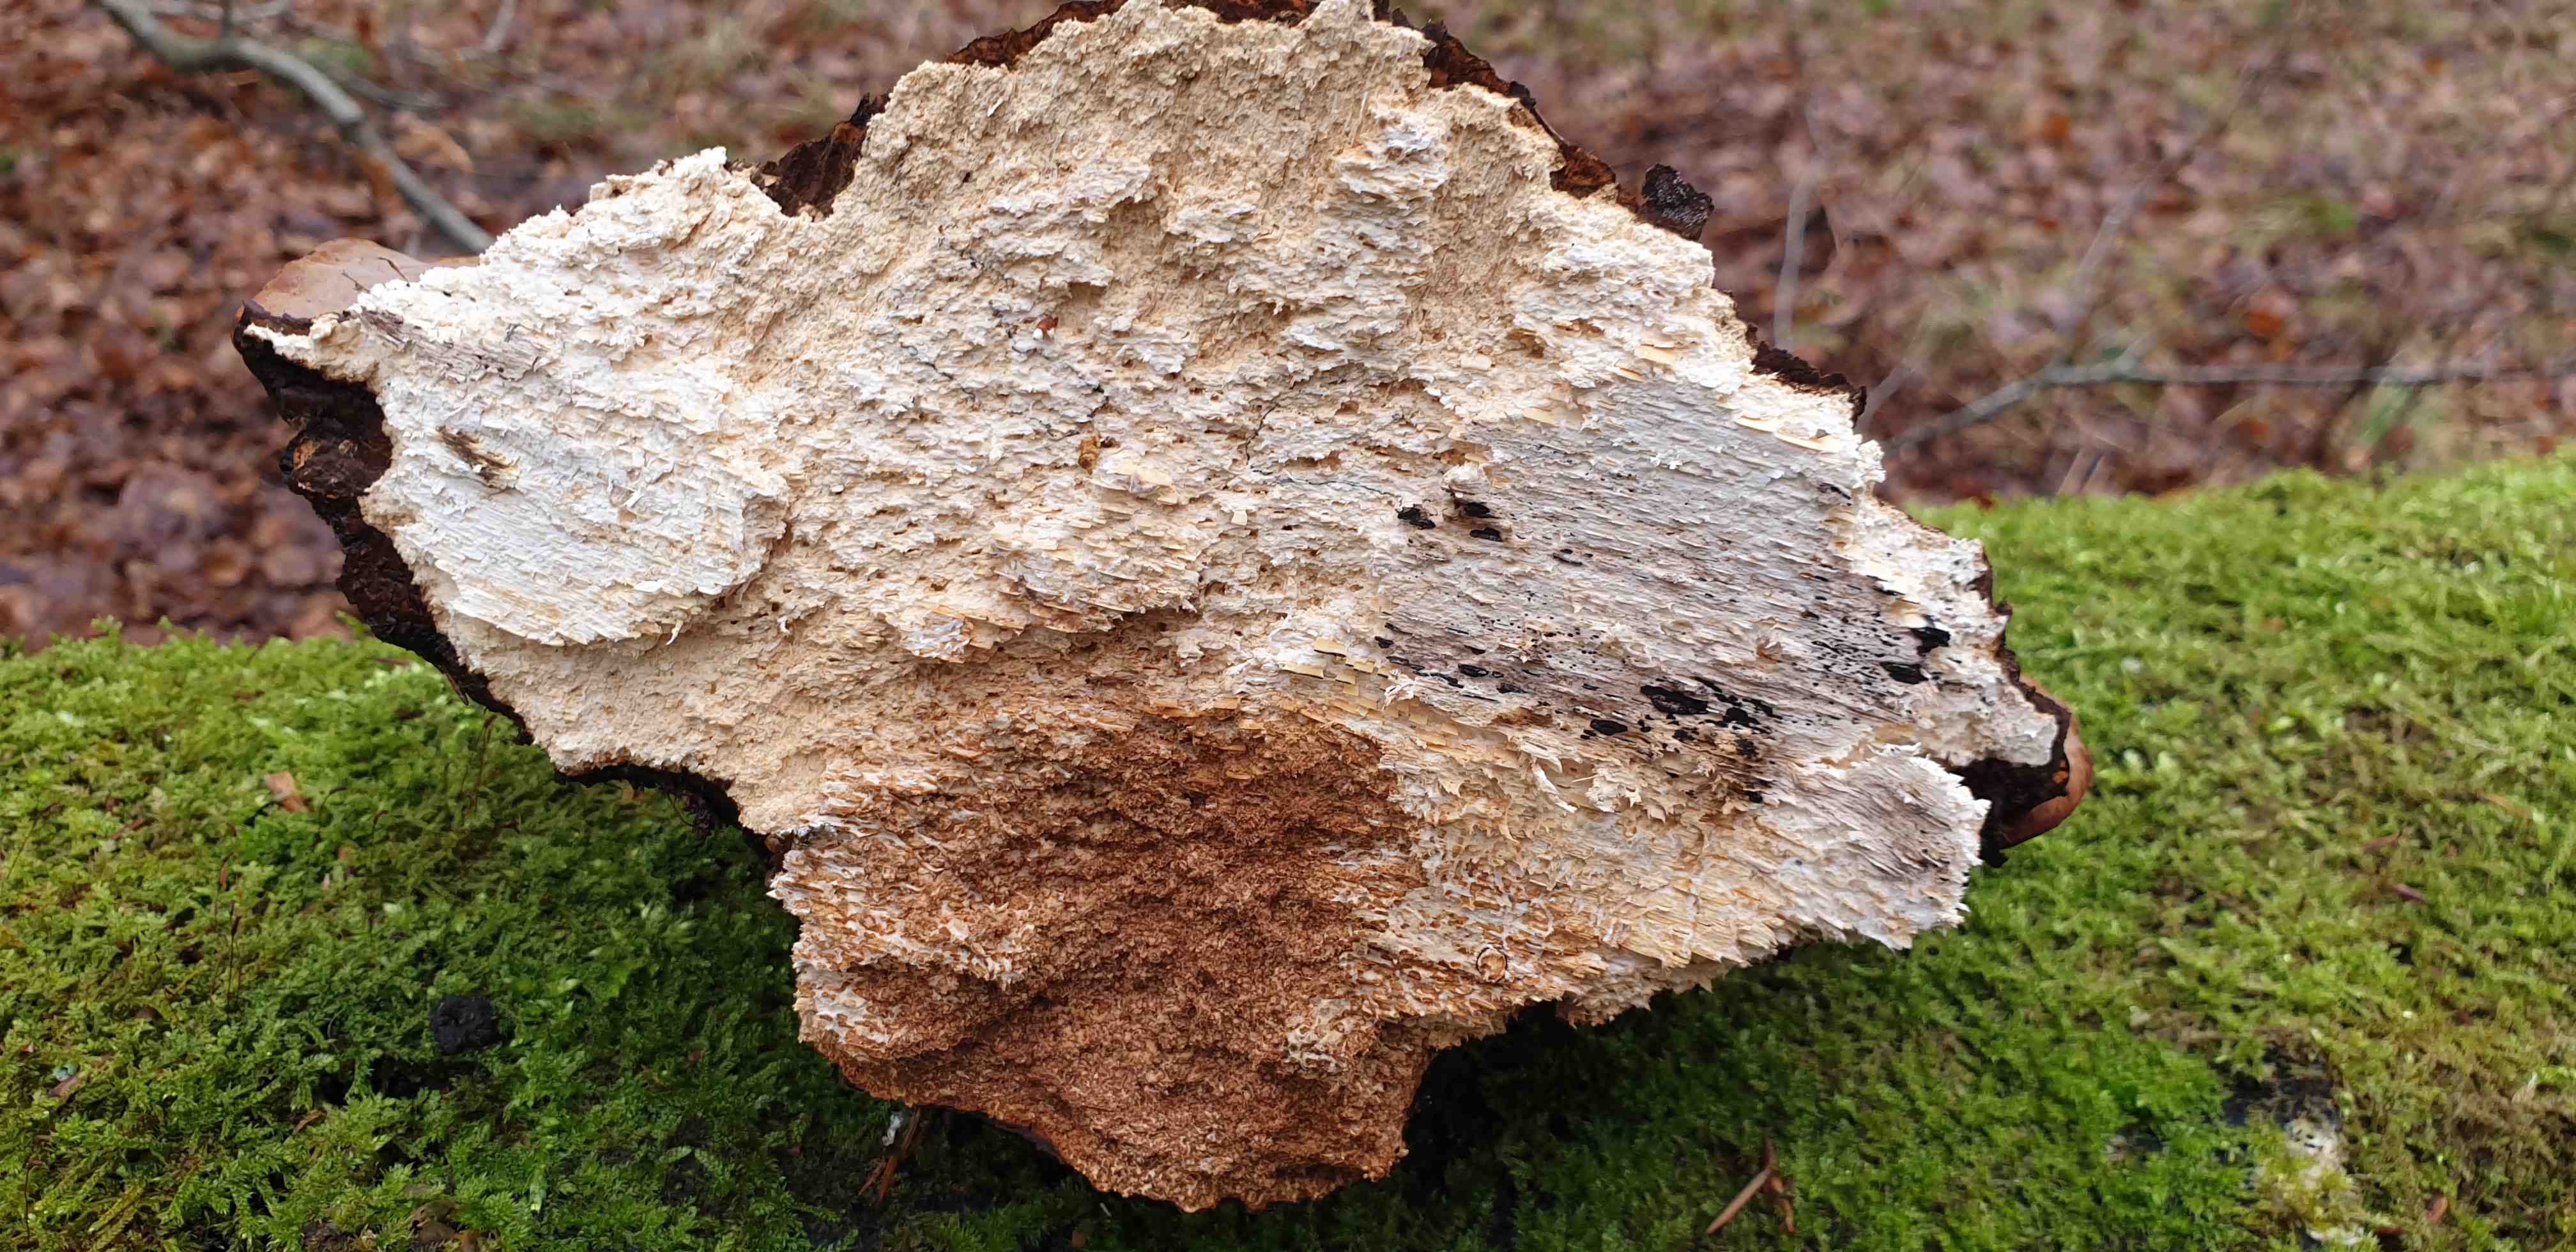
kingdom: Fungi
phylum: Basidiomycota
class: Agaricomycetes
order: Polyporales
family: Polyporaceae
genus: Fomes
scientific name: Fomes fomentarius
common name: tøndersvamp
